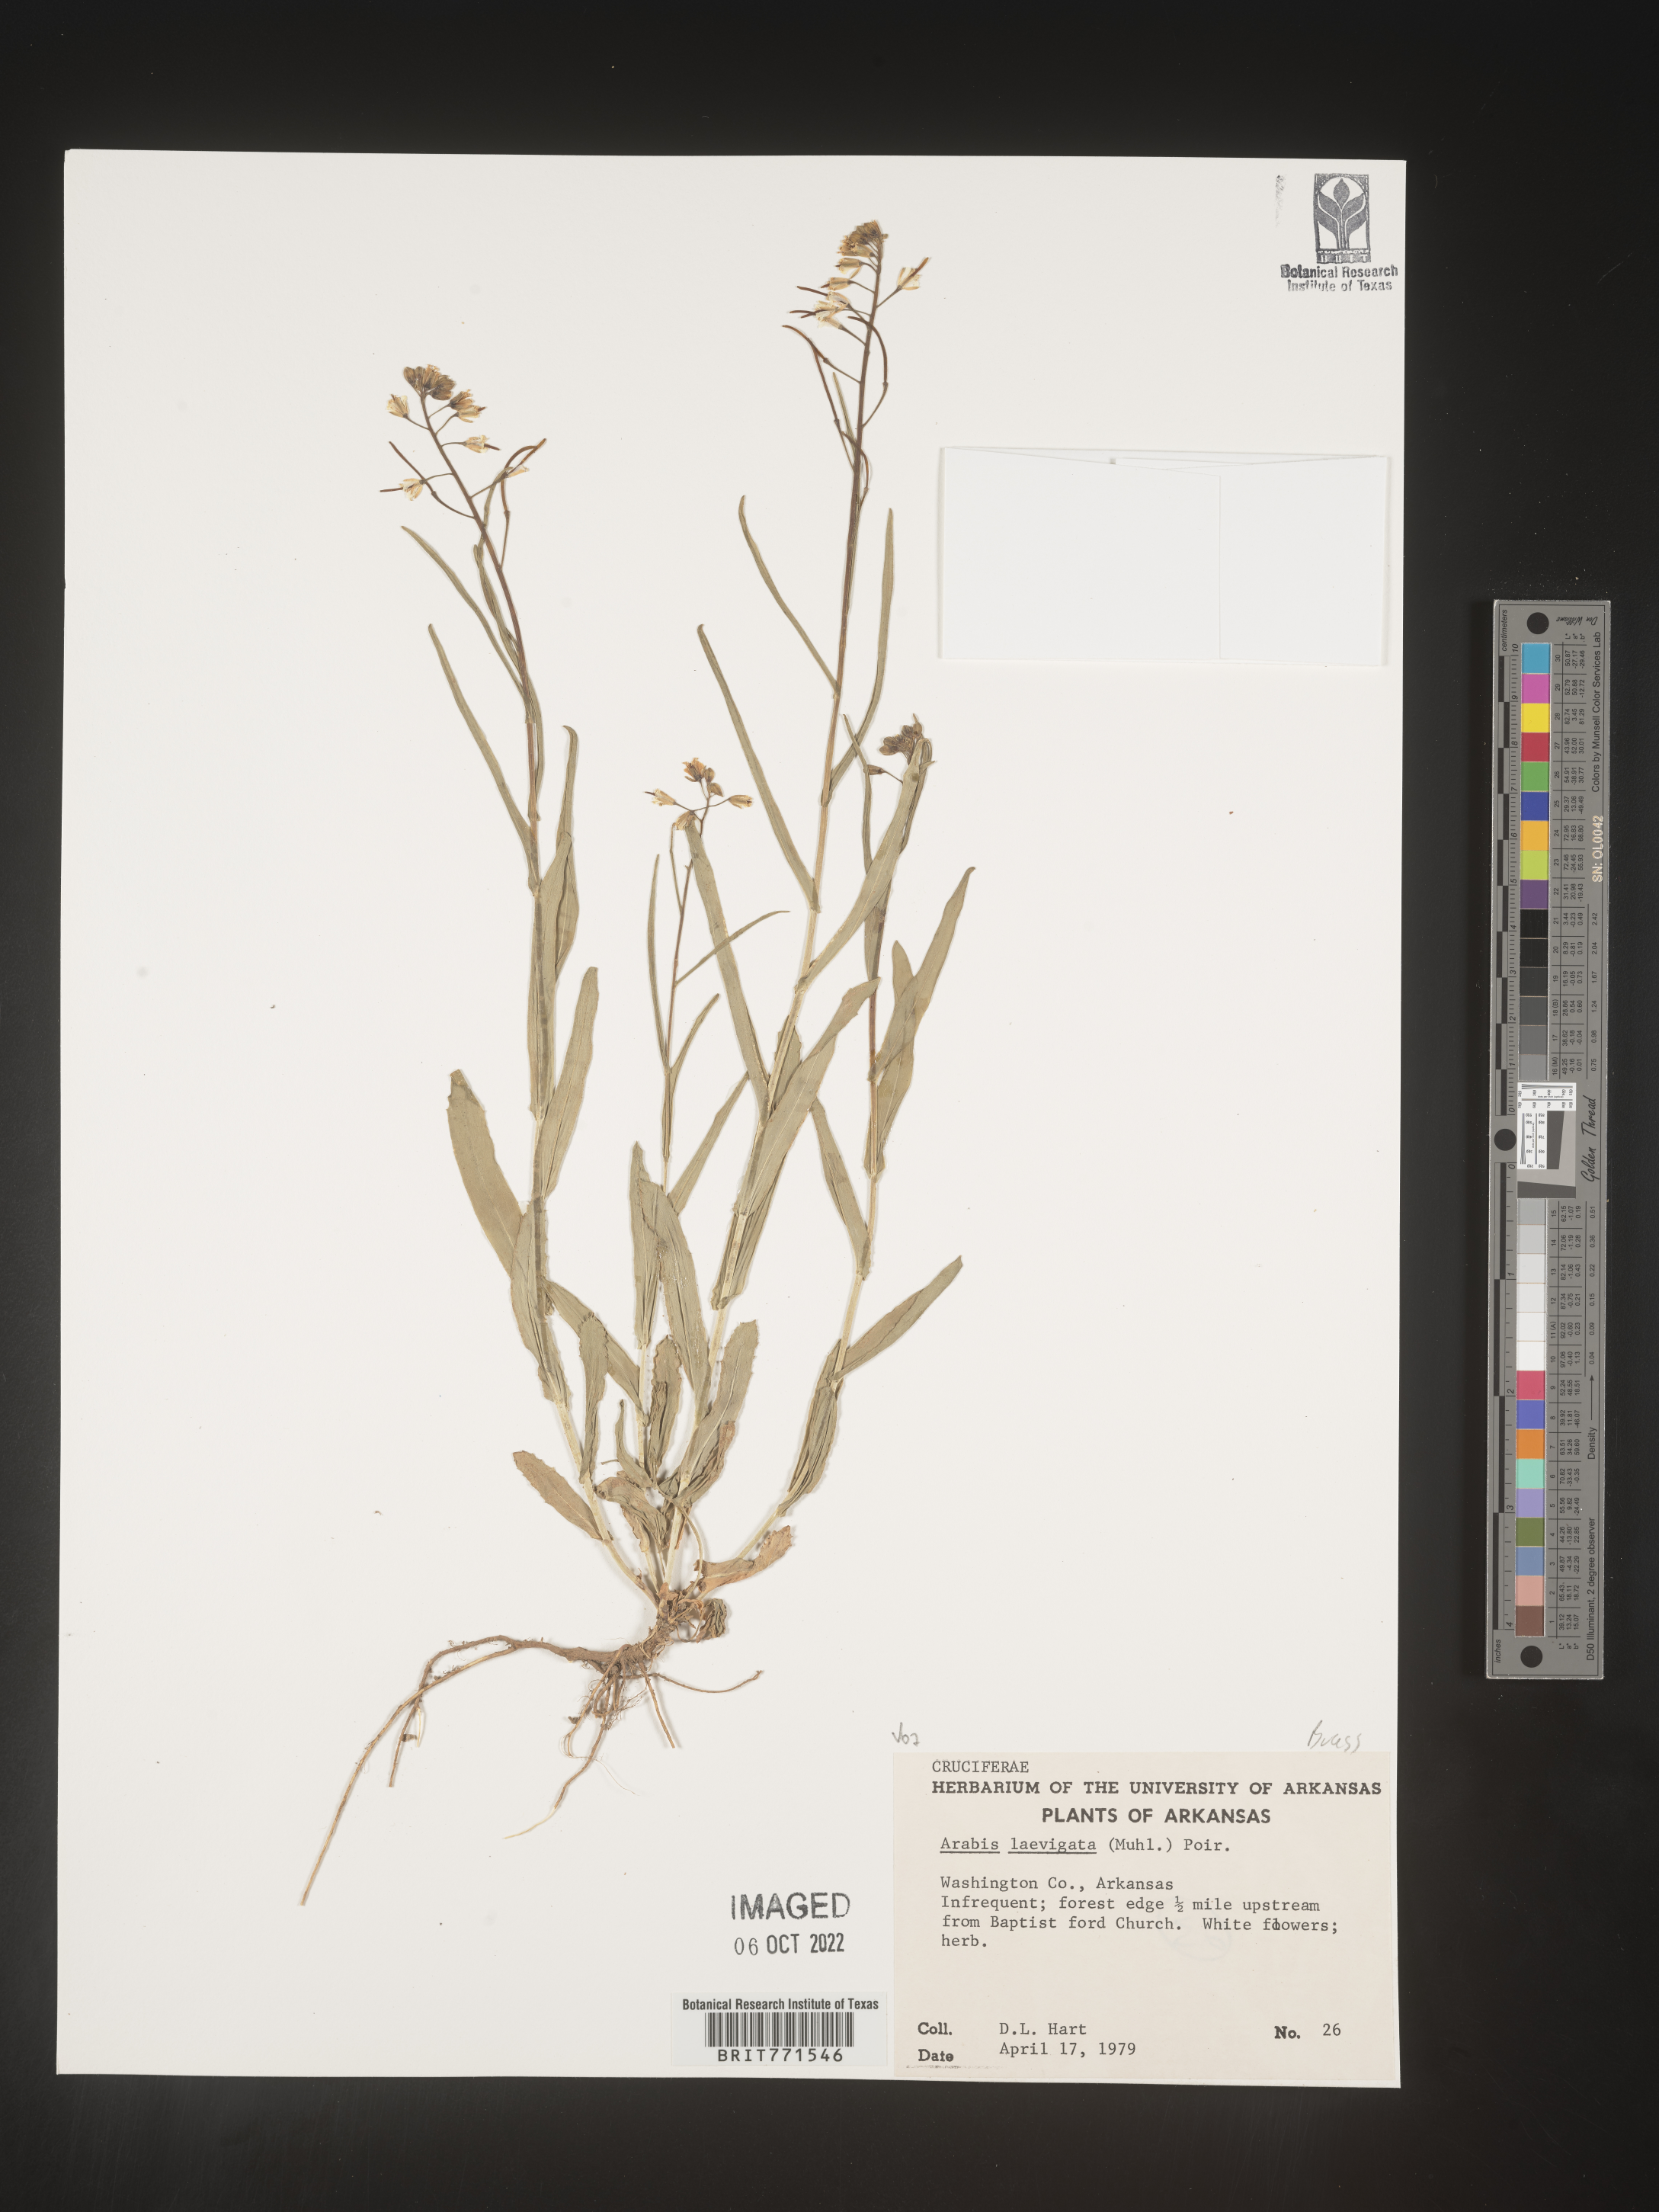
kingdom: Plantae
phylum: Tracheophyta
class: Magnoliopsida
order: Brassicales
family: Brassicaceae
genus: Arabis
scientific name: Arabis laevigata
